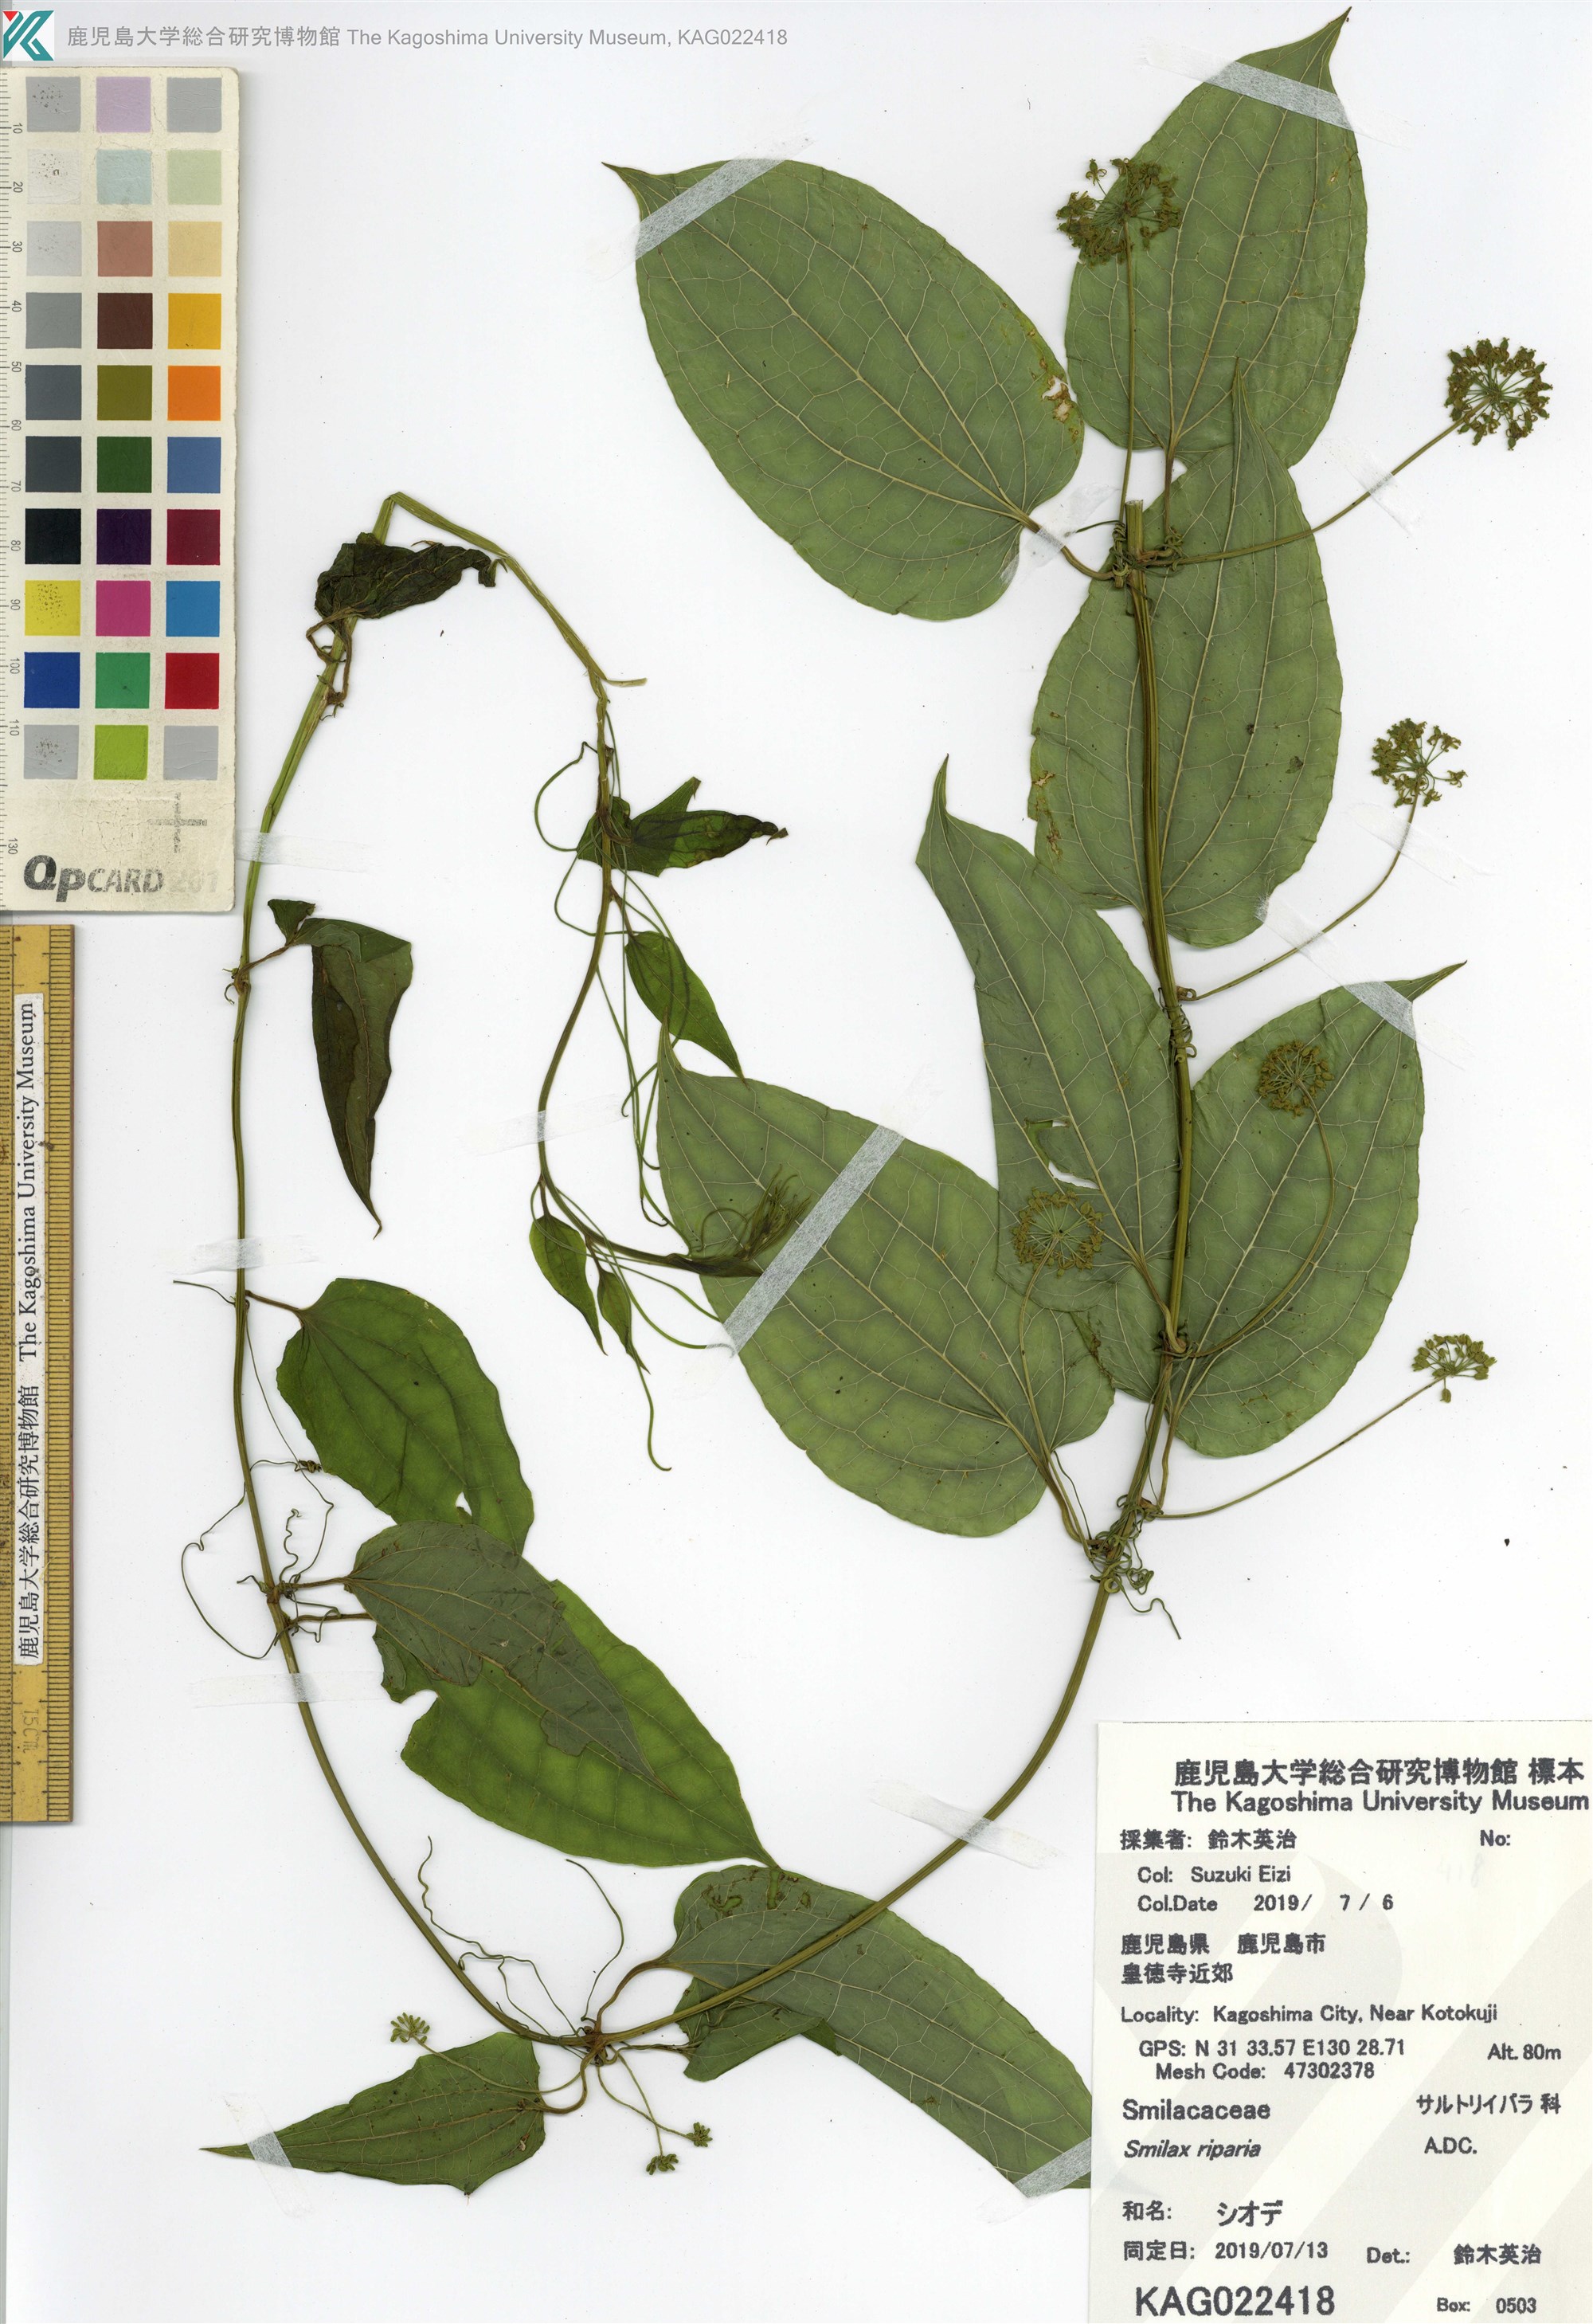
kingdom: Plantae
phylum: Tracheophyta
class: Liliopsida
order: Liliales
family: Smilacaceae
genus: Smilax
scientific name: Smilax riparia
